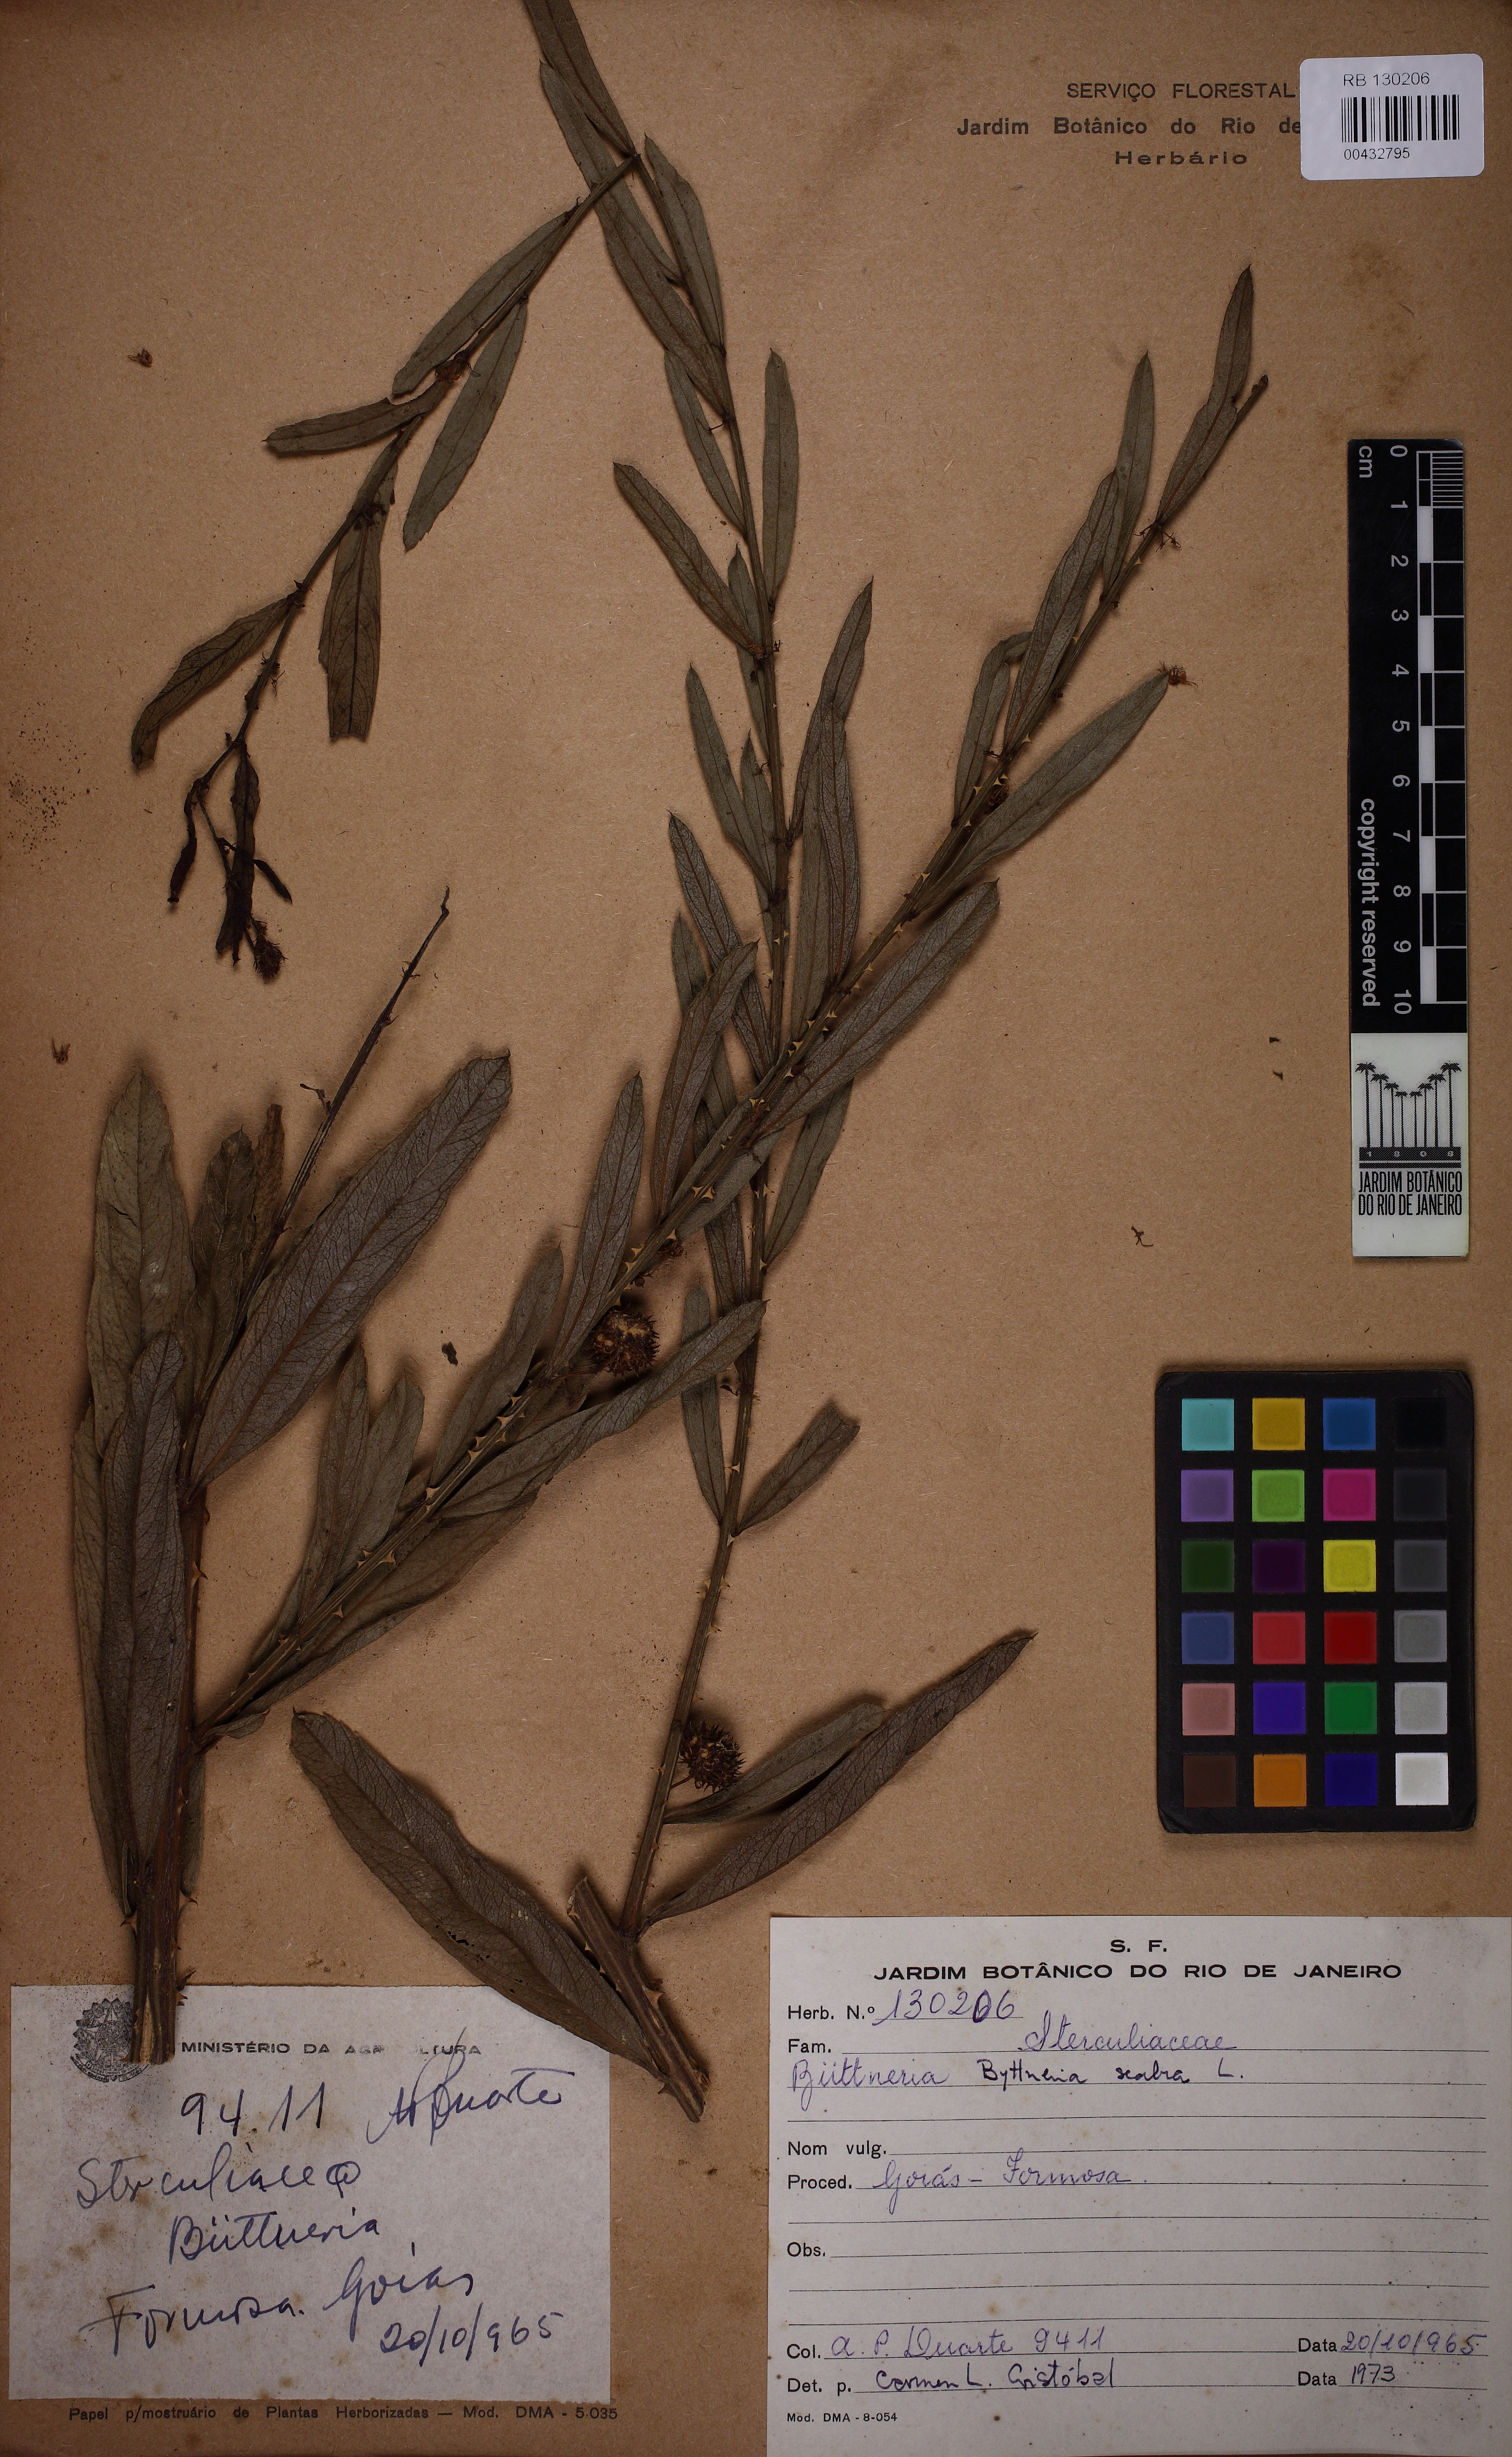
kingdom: Plantae
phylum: Tracheophyta
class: Magnoliopsida
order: Malvales
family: Malvaceae
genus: Byttneria
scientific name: Byttneria scabra
